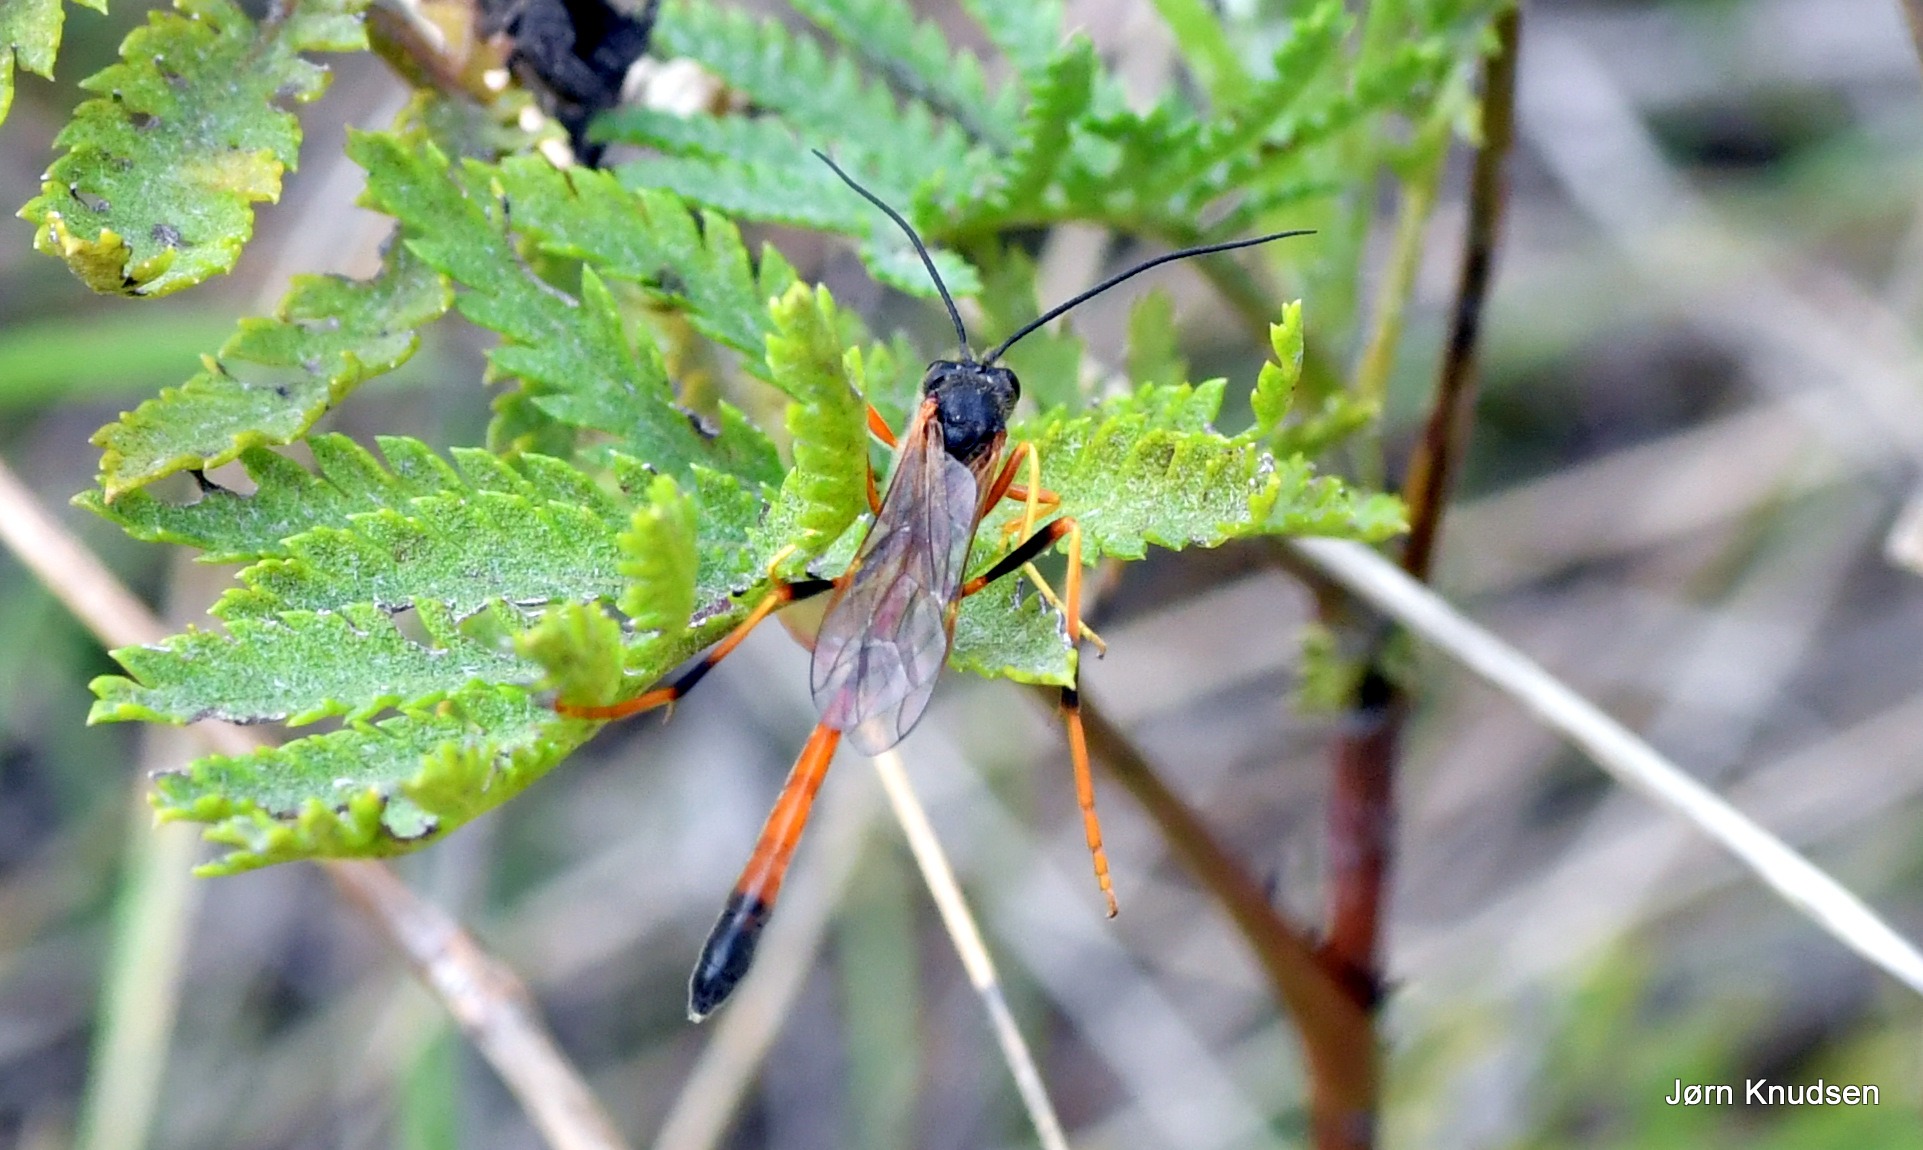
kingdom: Animalia
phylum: Arthropoda
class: Insecta
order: Hymenoptera
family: Ichneumonidae
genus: Anomalon
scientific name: Anomalon anae
